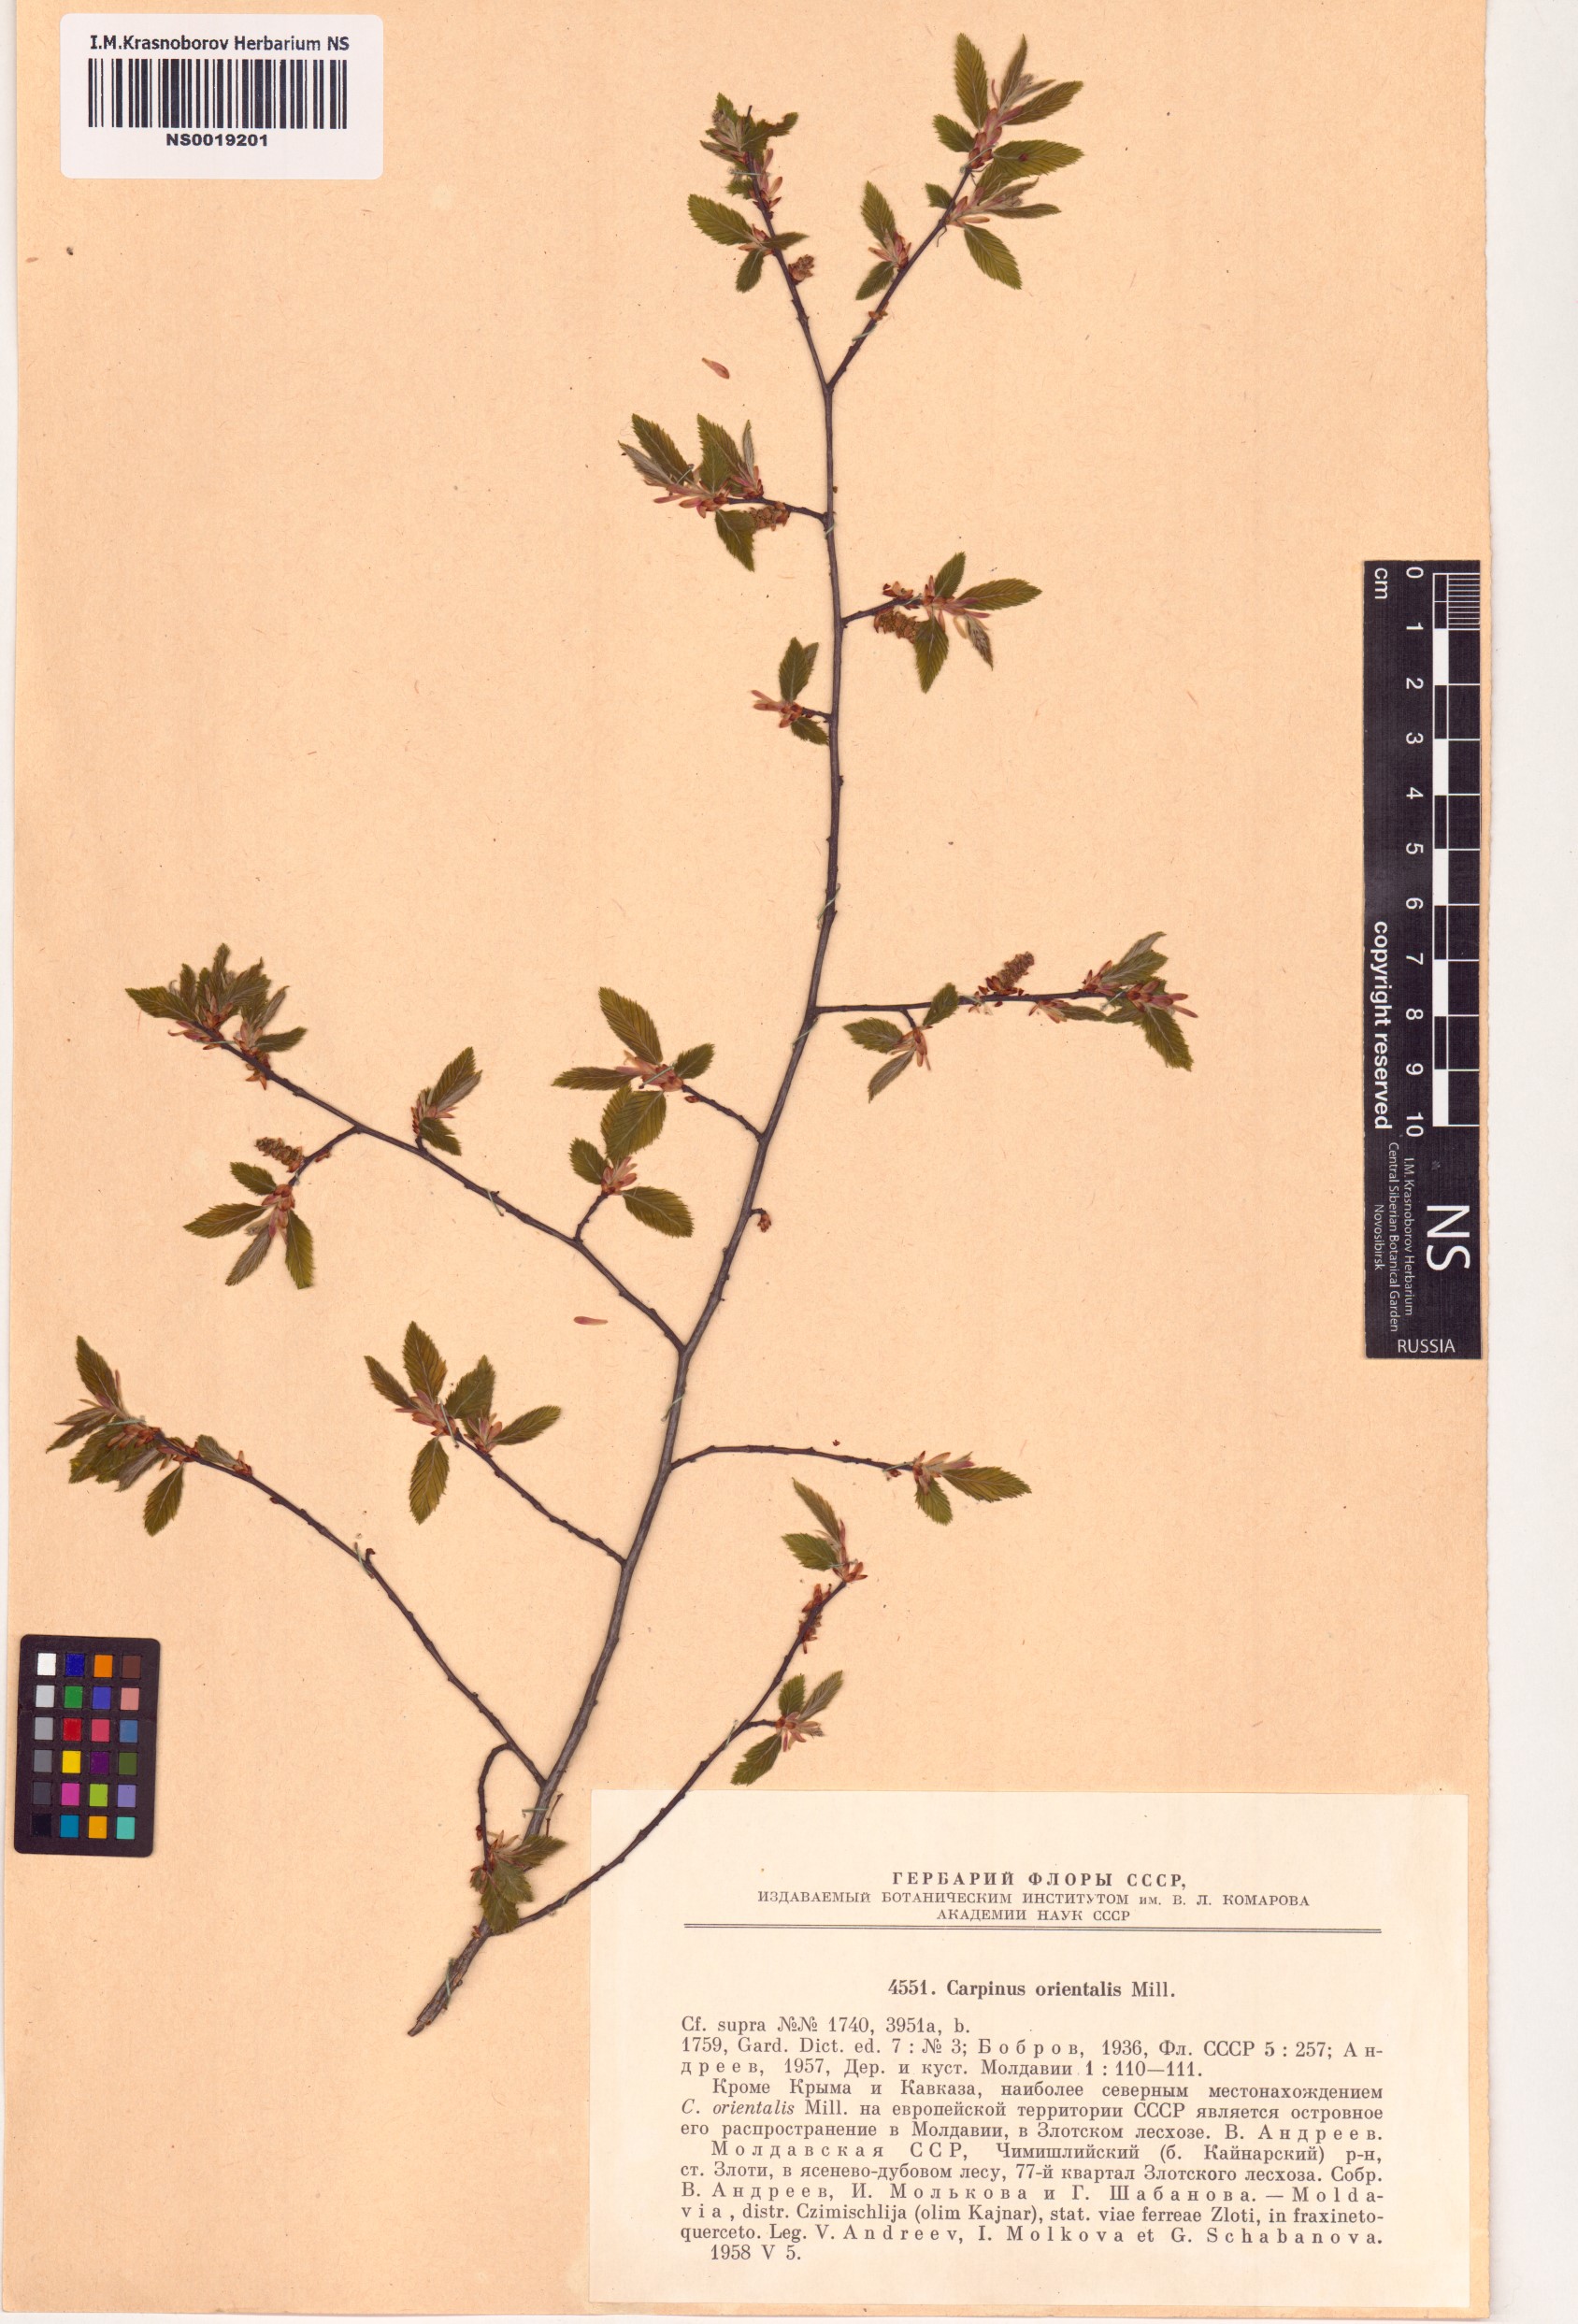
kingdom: Plantae
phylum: Tracheophyta
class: Magnoliopsida
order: Fagales
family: Betulaceae
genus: Carpinus
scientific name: Carpinus orientalis
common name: Eastern hornbeam
